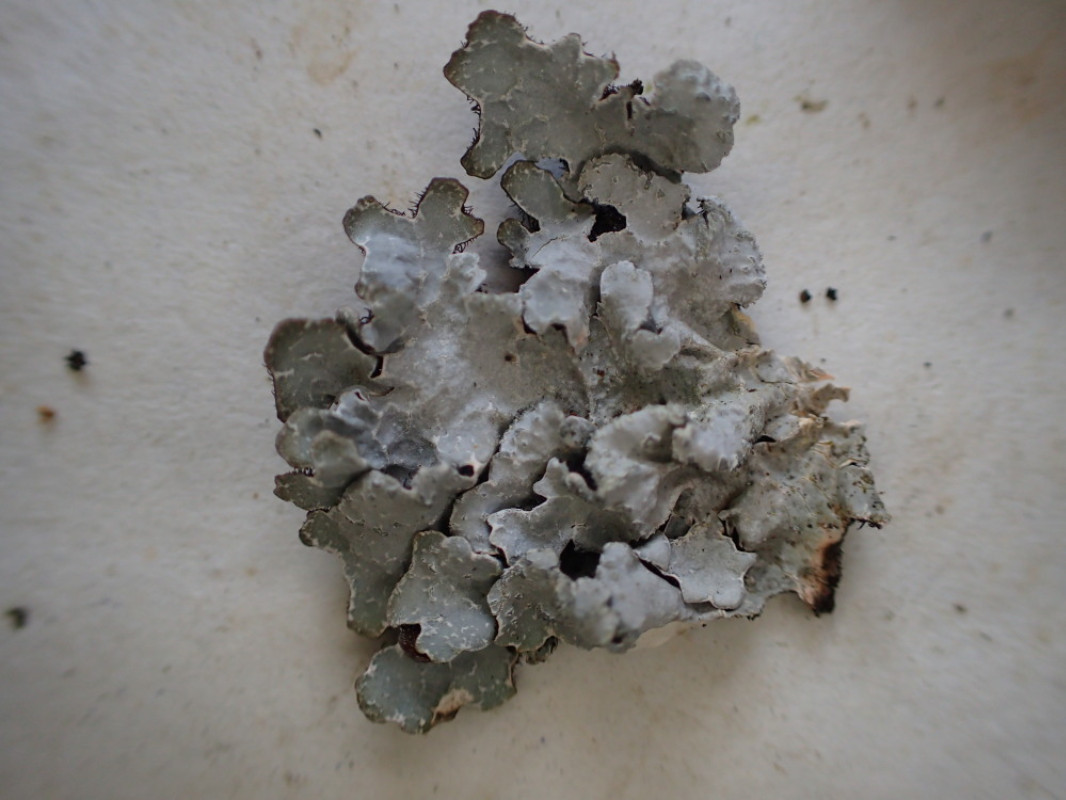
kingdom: Fungi
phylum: Ascomycota
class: Lecanoromycetes
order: Lecanorales
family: Parmeliaceae
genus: Parmelia
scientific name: Parmelia sulcata
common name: rynket skållav
